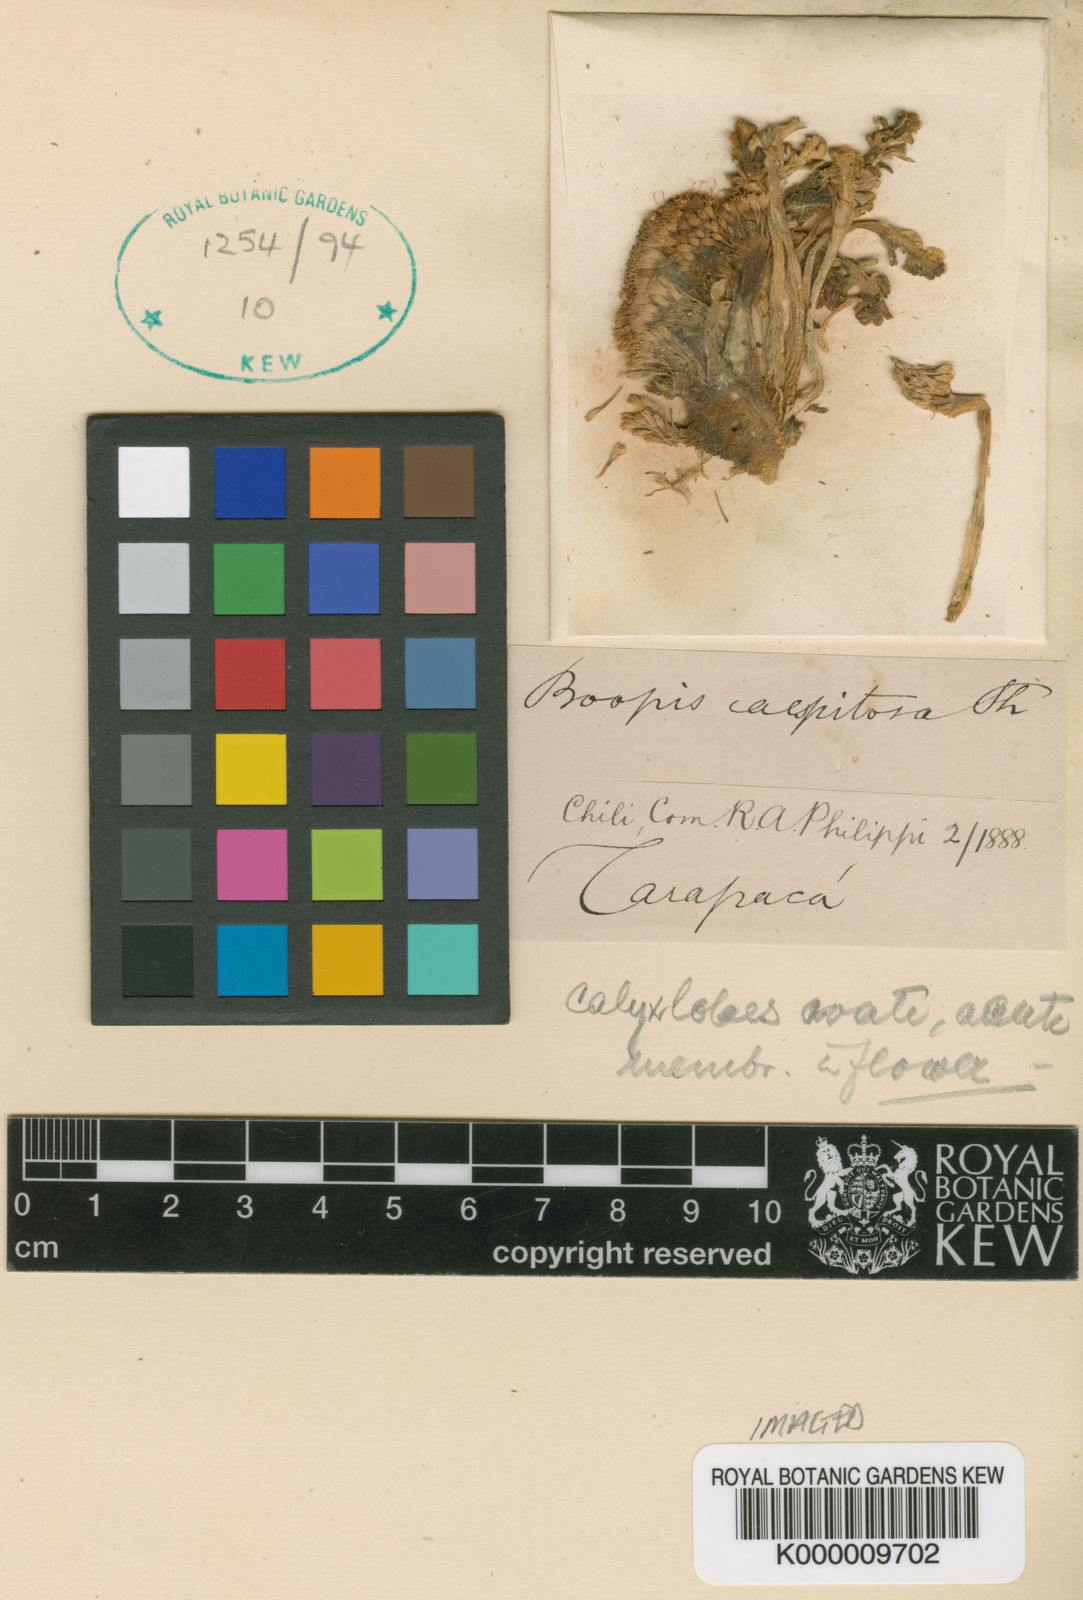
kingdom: Plantae
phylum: Tracheophyta
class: Magnoliopsida
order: Asterales
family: Calyceraceae
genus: Gamocarpha
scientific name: Gamocarpha caespitosa
